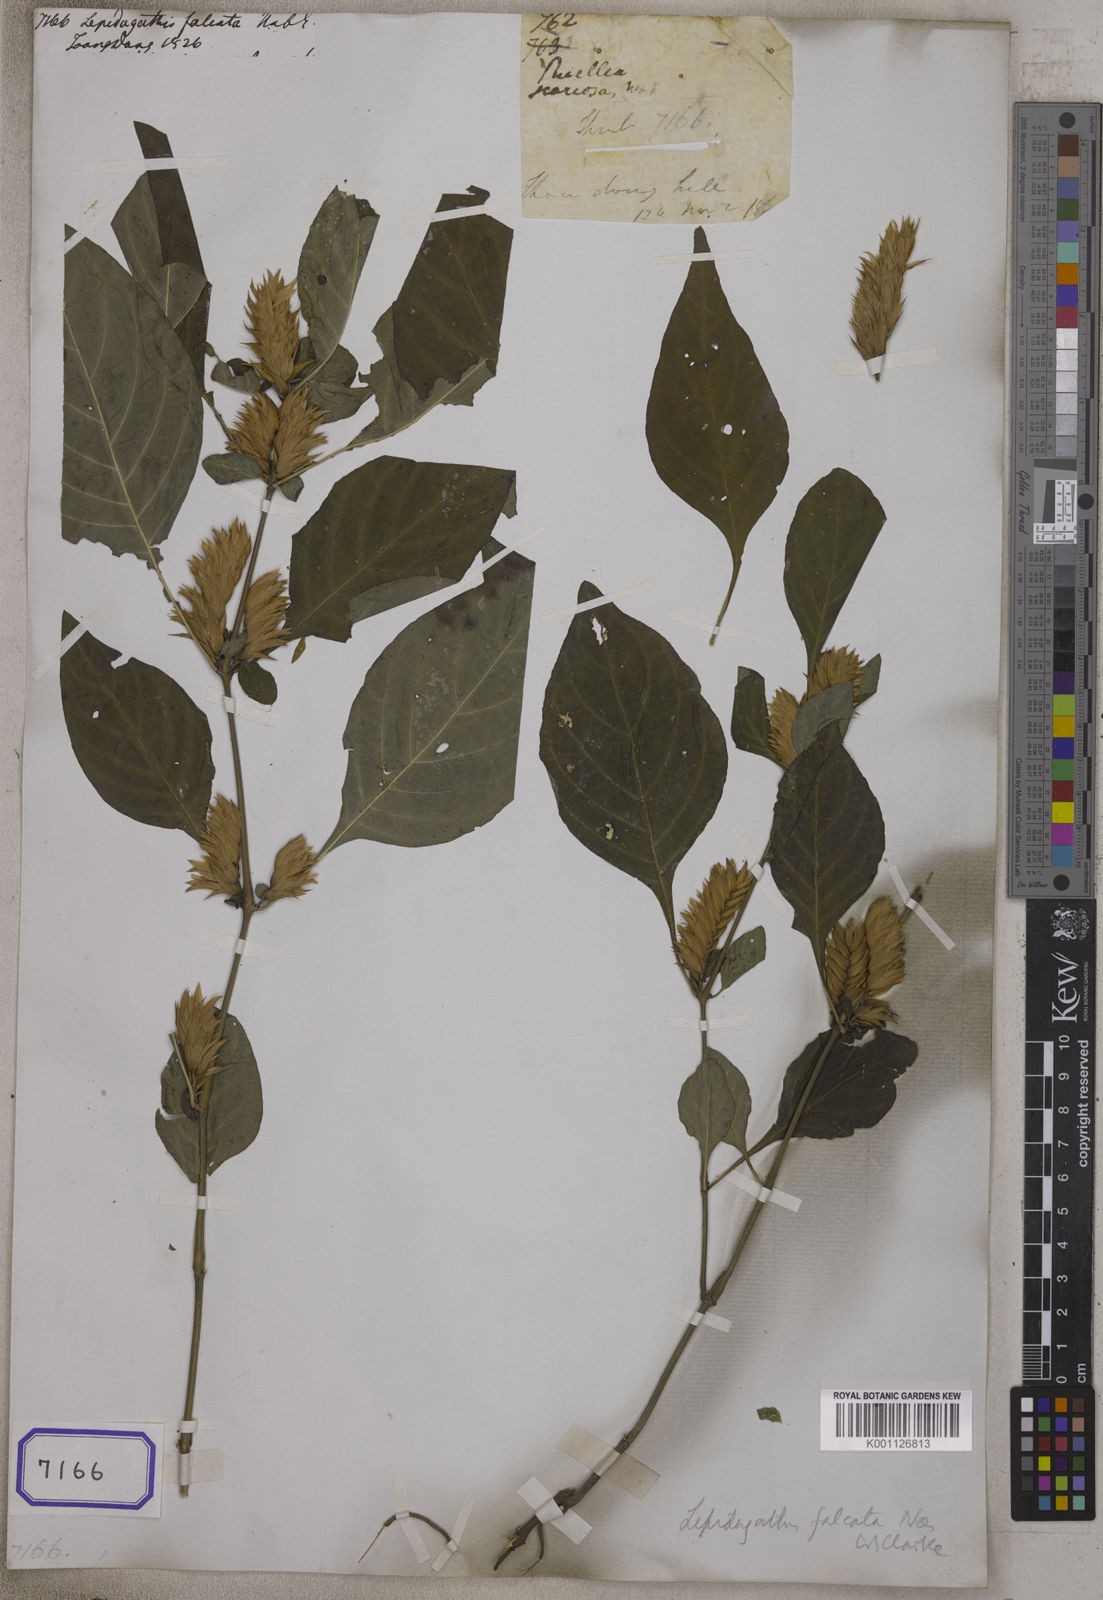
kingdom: Plantae
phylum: Tracheophyta
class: Magnoliopsida
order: Lamiales
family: Acanthaceae
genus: Lepidagathis
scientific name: Lepidagathis falcata
